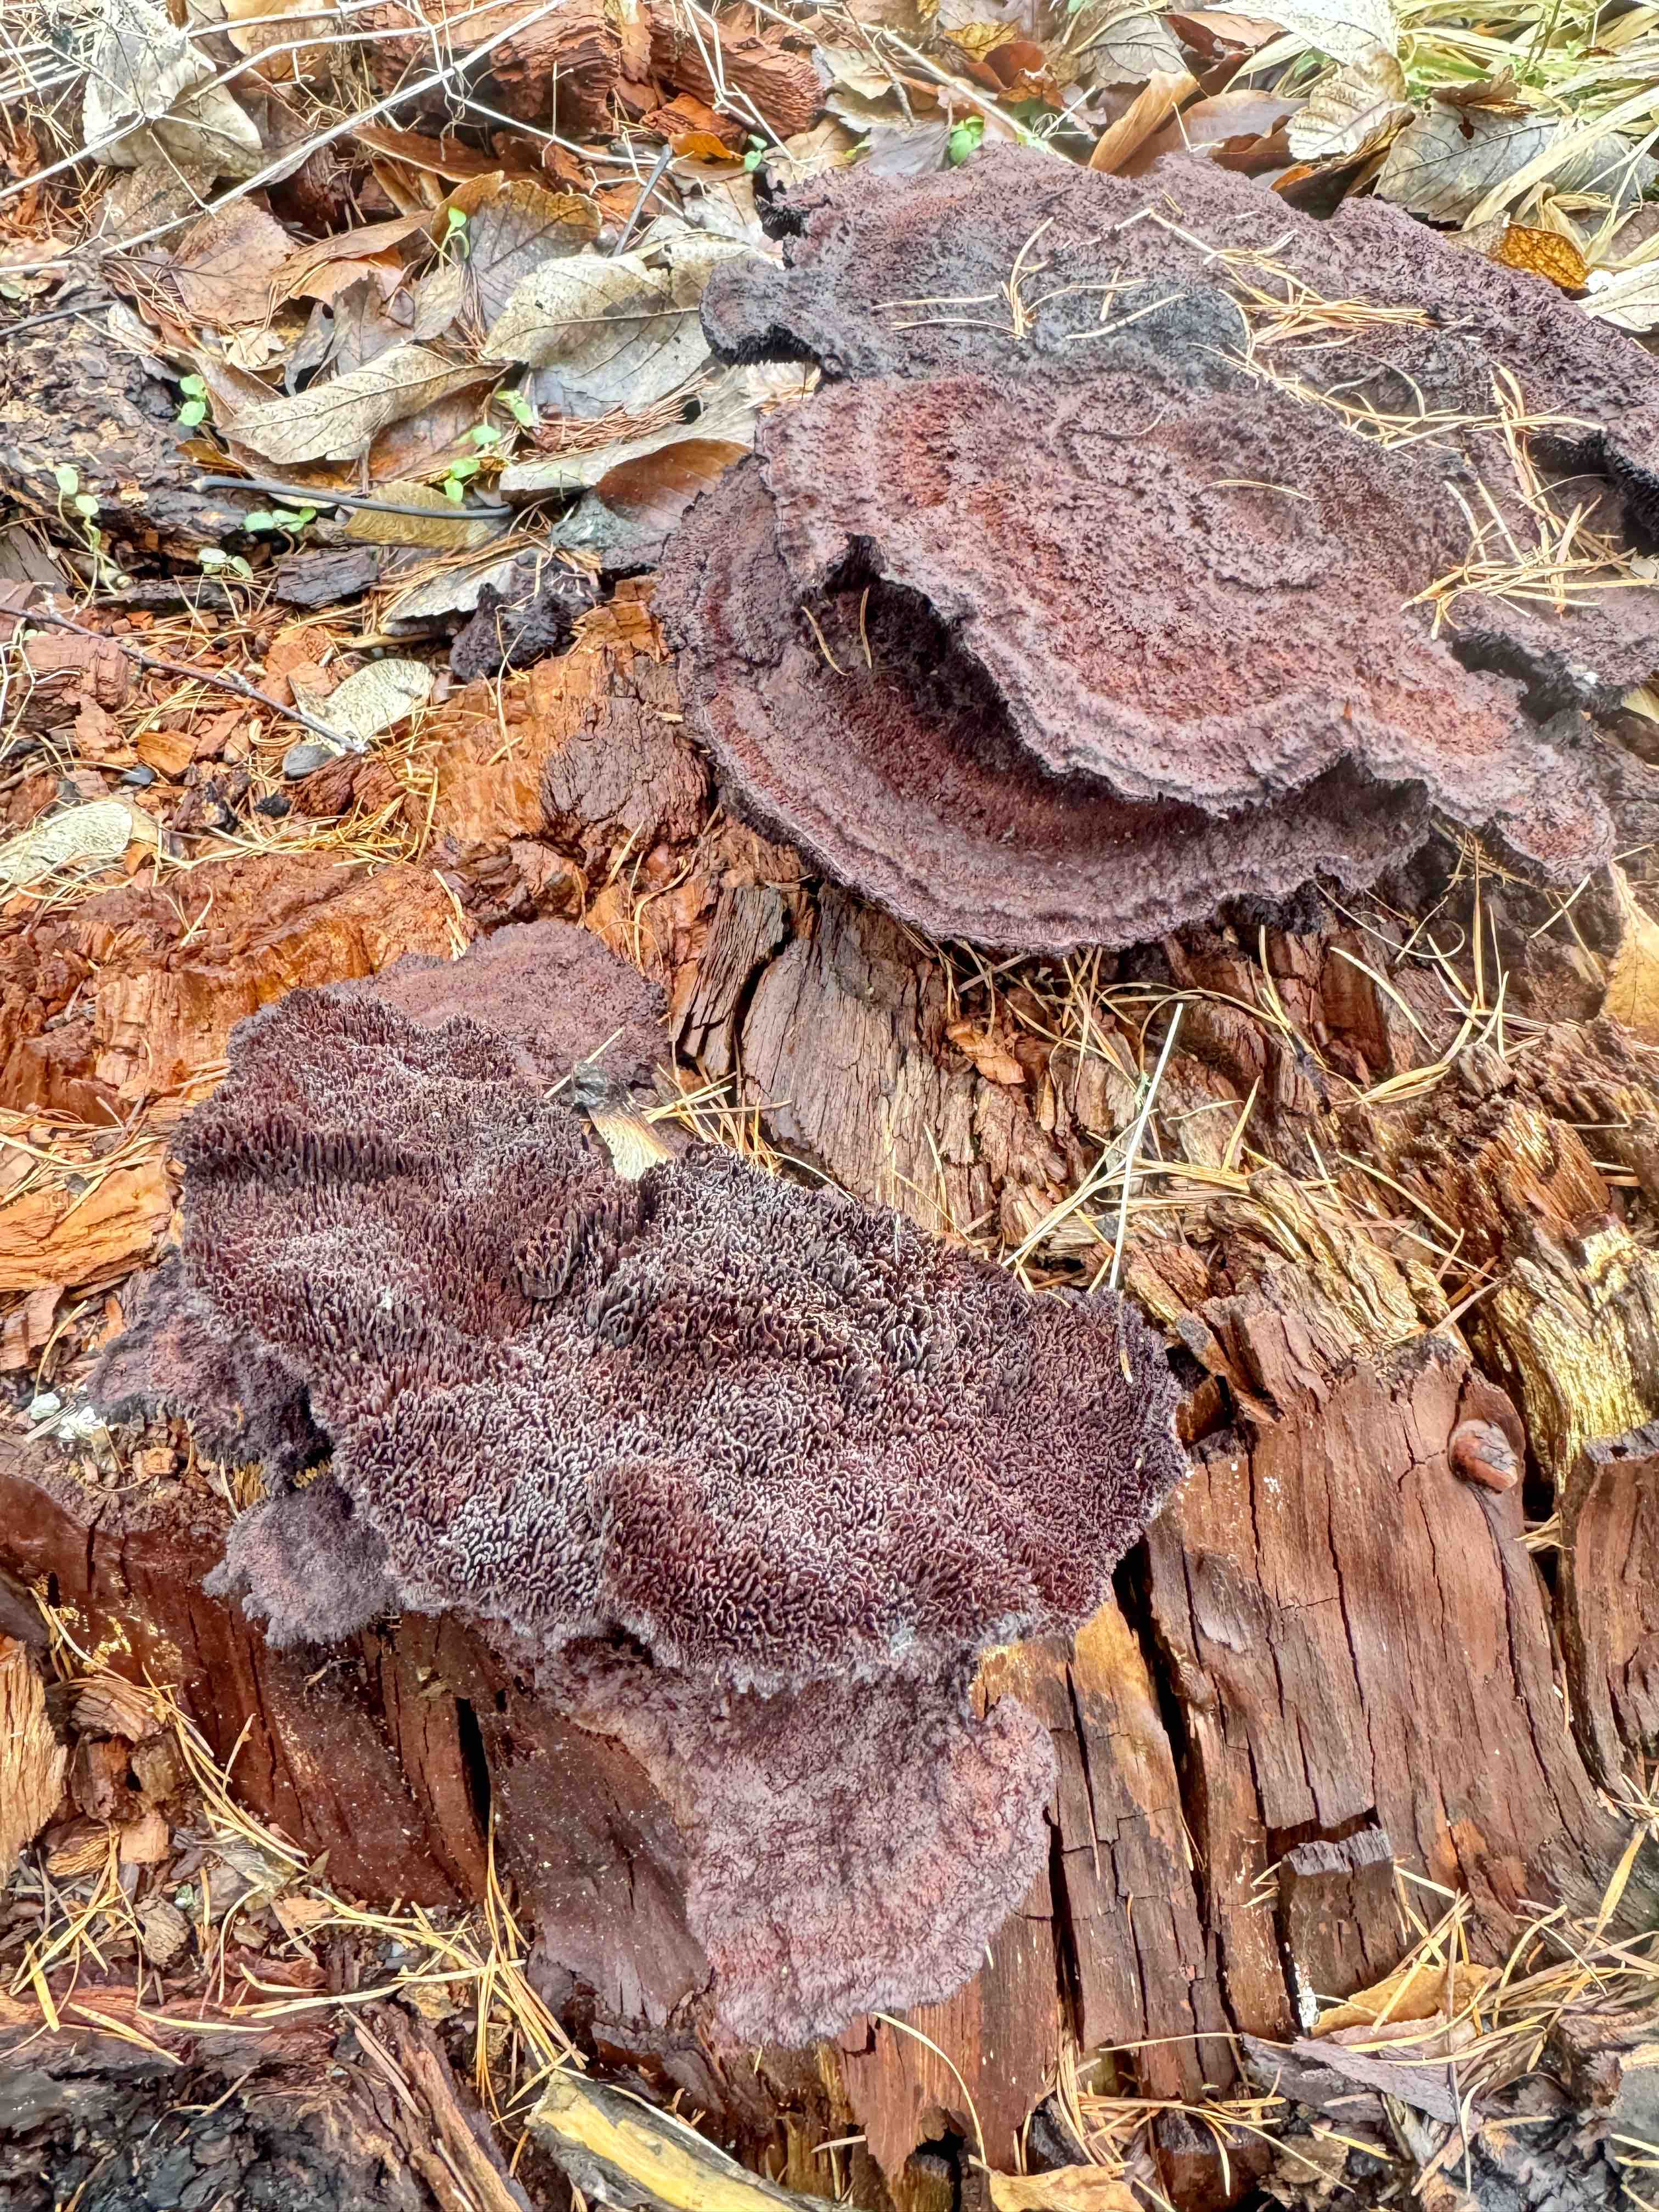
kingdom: Fungi
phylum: Basidiomycota
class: Agaricomycetes
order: Polyporales
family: Laetiporaceae
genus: Phaeolus
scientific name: Phaeolus schweinitzii
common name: brunporesvamp
